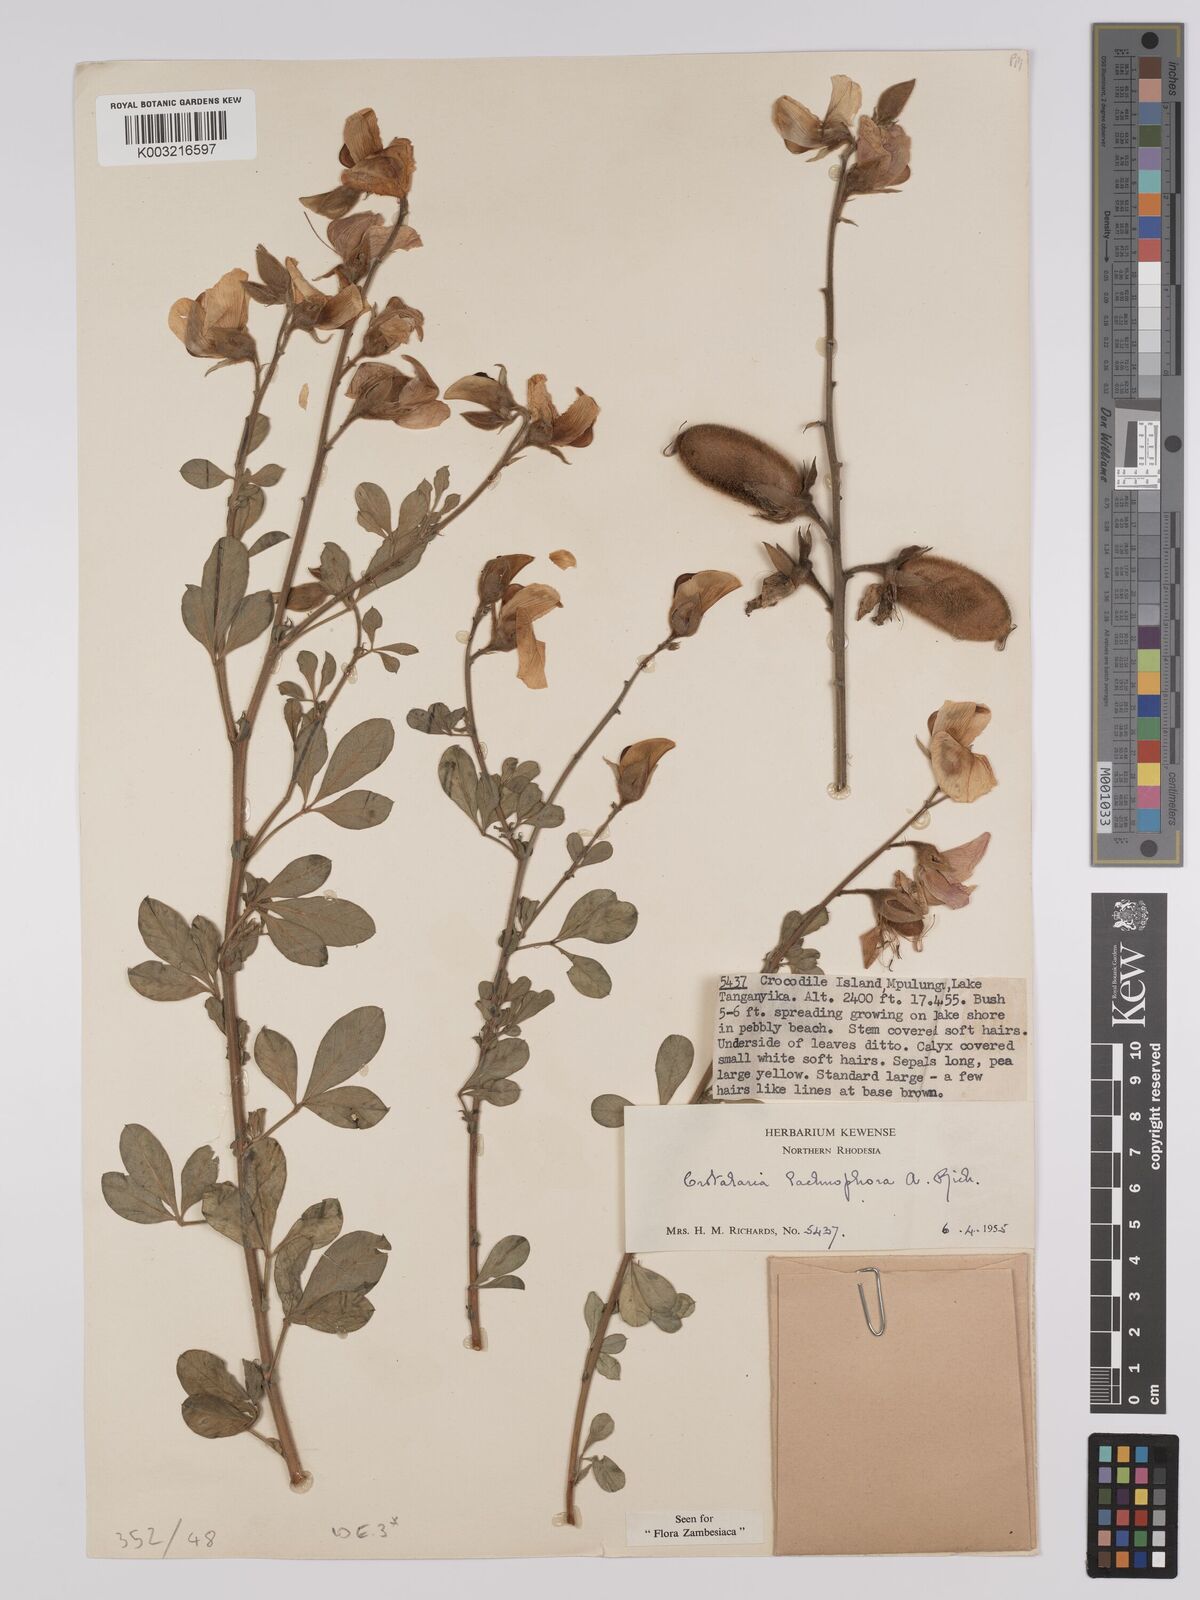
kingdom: Plantae
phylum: Tracheophyta
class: Magnoliopsida
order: Fabales
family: Fabaceae
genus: Crotalaria
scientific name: Crotalaria lachnophora
